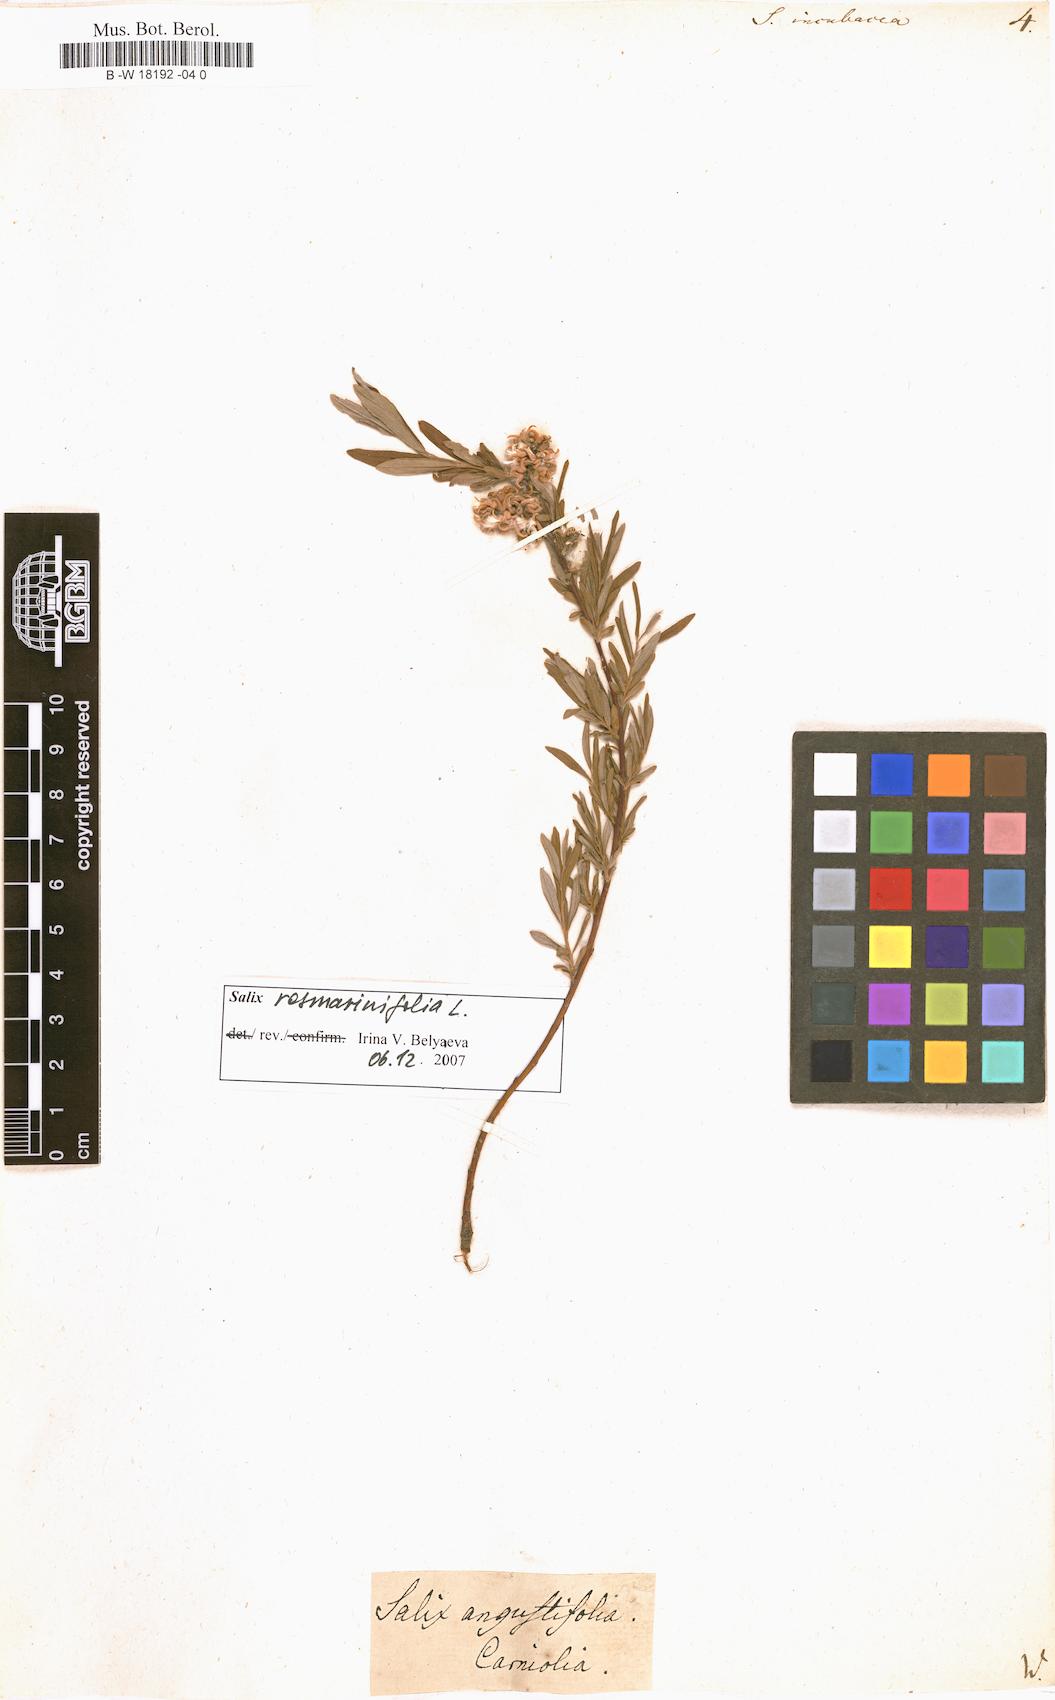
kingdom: Plantae
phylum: Tracheophyta
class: Magnoliopsida
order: Malpighiales
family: Salicaceae
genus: Salix
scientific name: Salix incubacea
